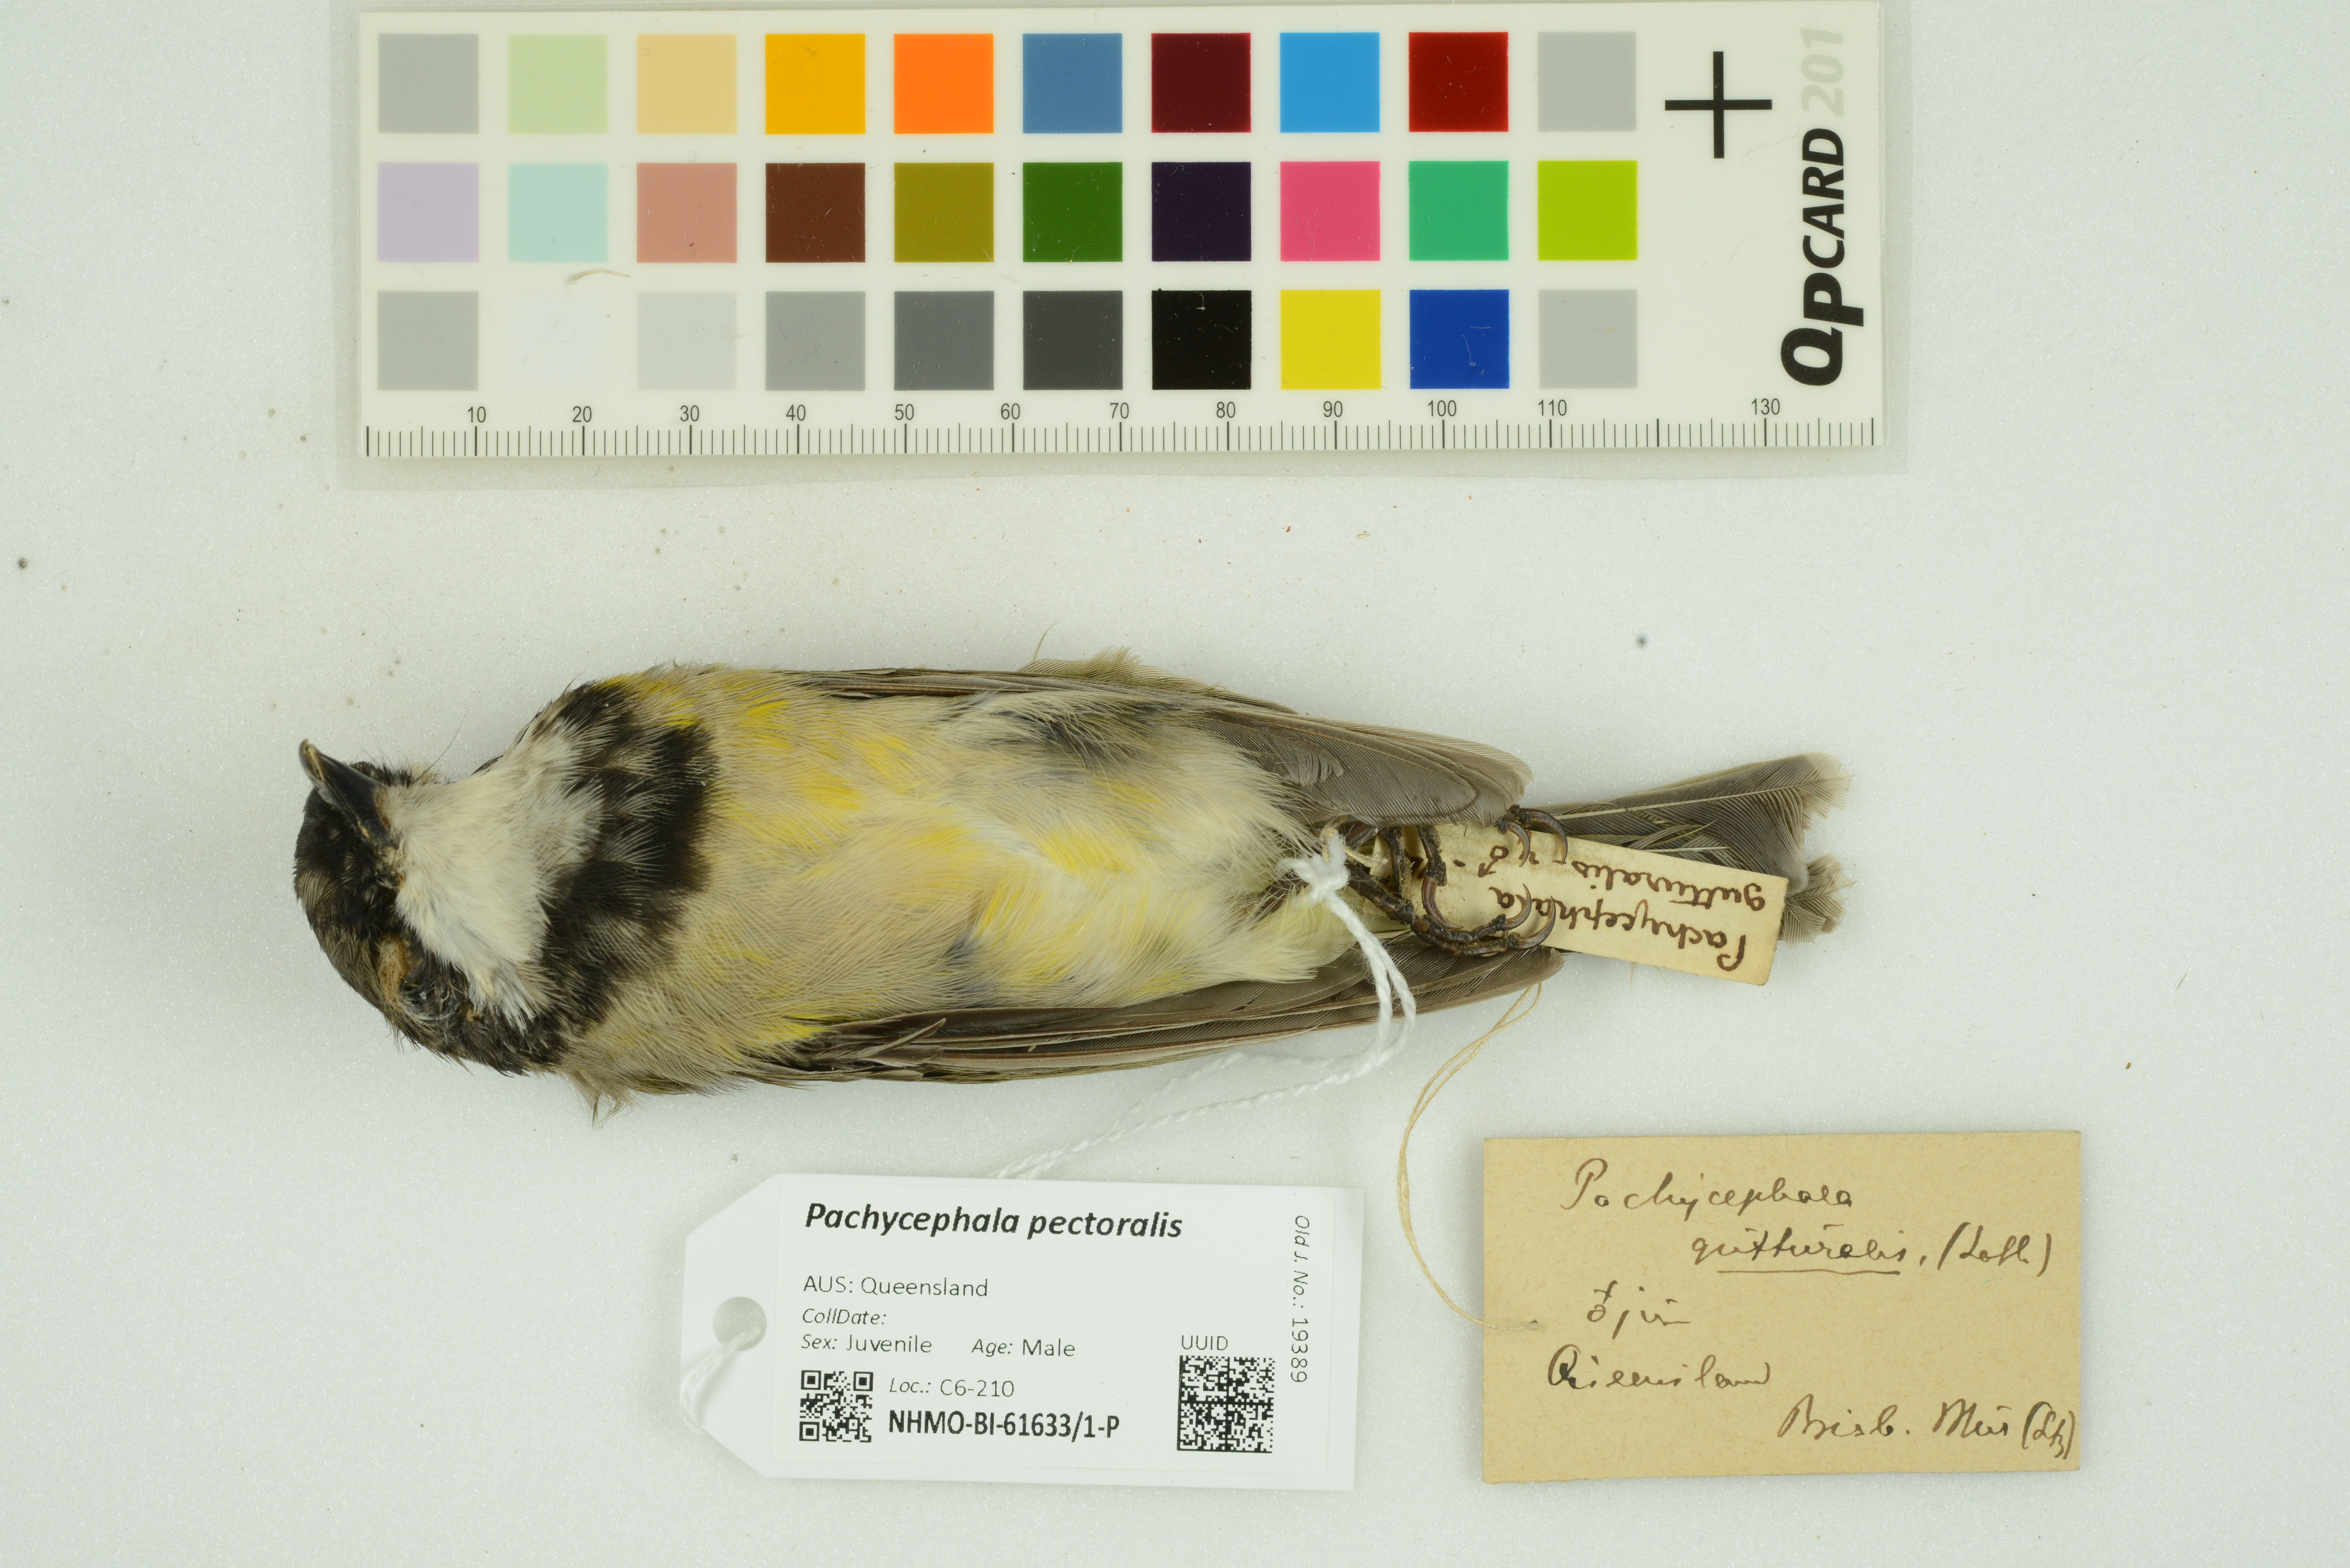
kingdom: Animalia
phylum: Chordata
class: Aves
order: Passeriformes
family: Pachycephalidae
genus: Pachycephala
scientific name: Pachycephala pectoralis
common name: Australian golden whistler
